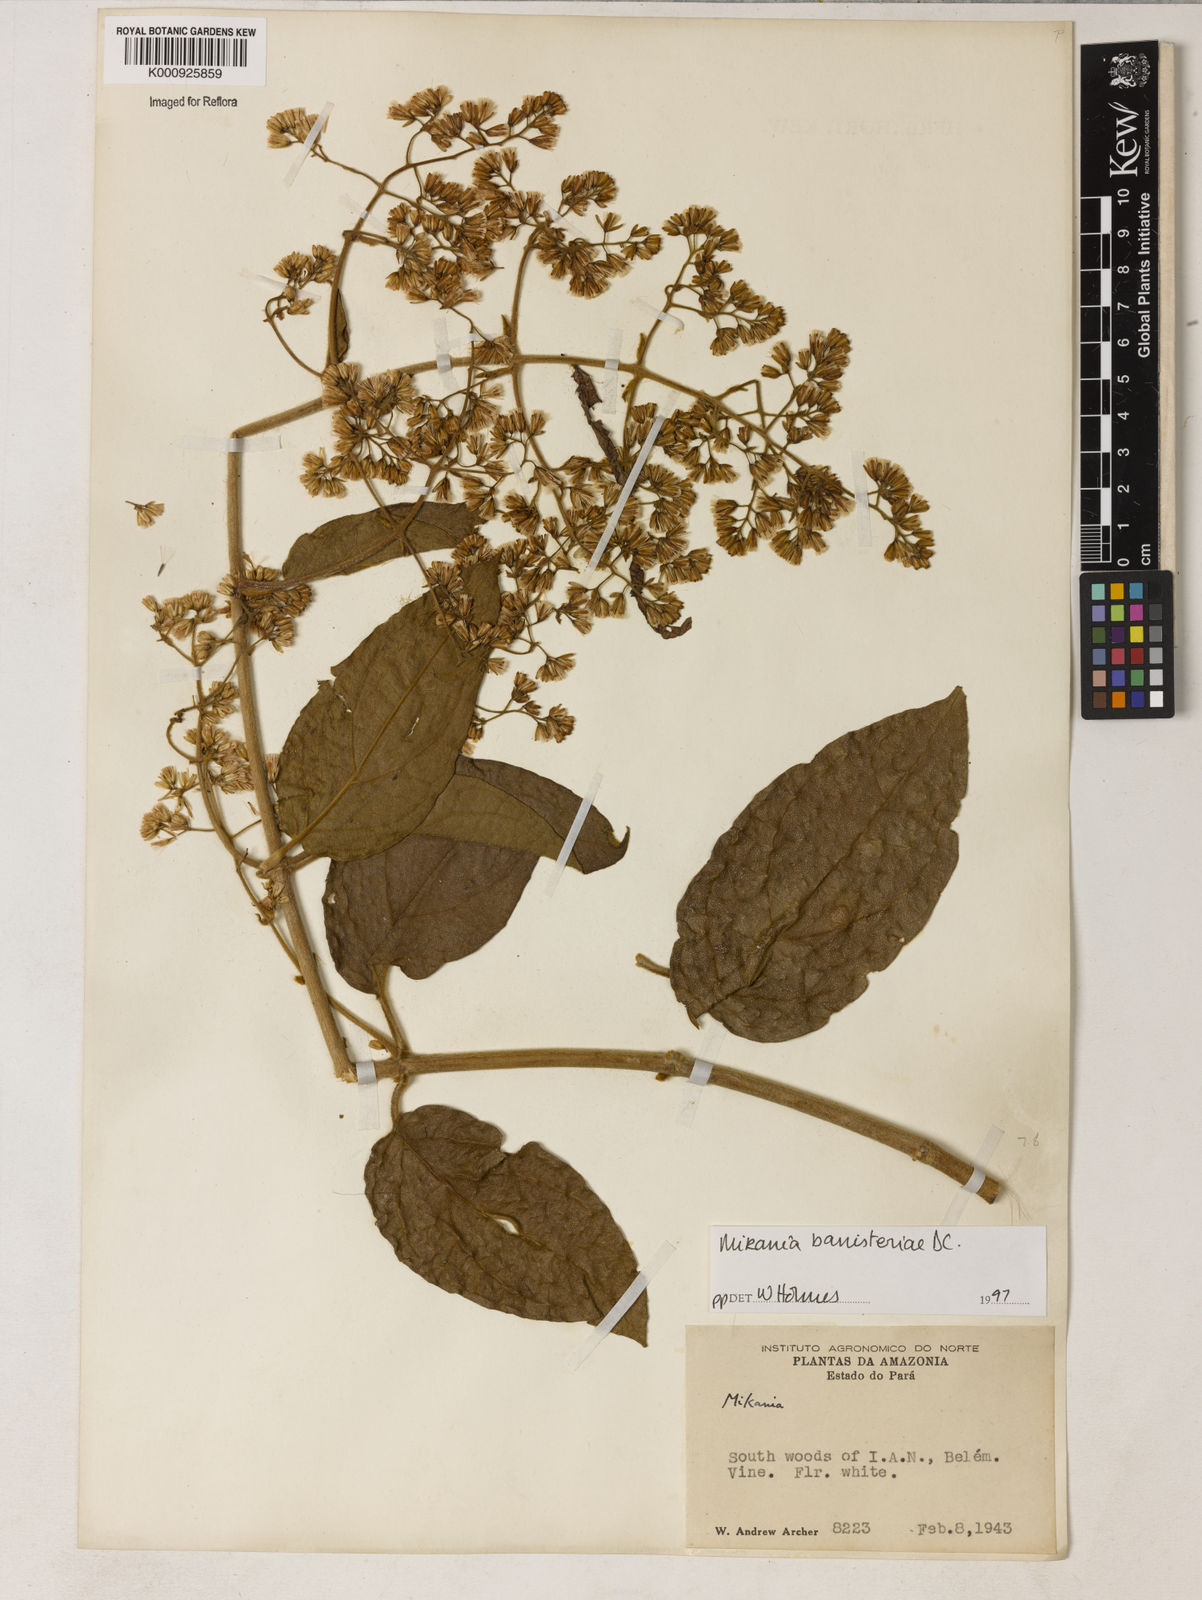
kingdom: Plantae
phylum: Tracheophyta
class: Magnoliopsida
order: Asterales
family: Asteraceae
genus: Mikania
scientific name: Mikania banisteriae
